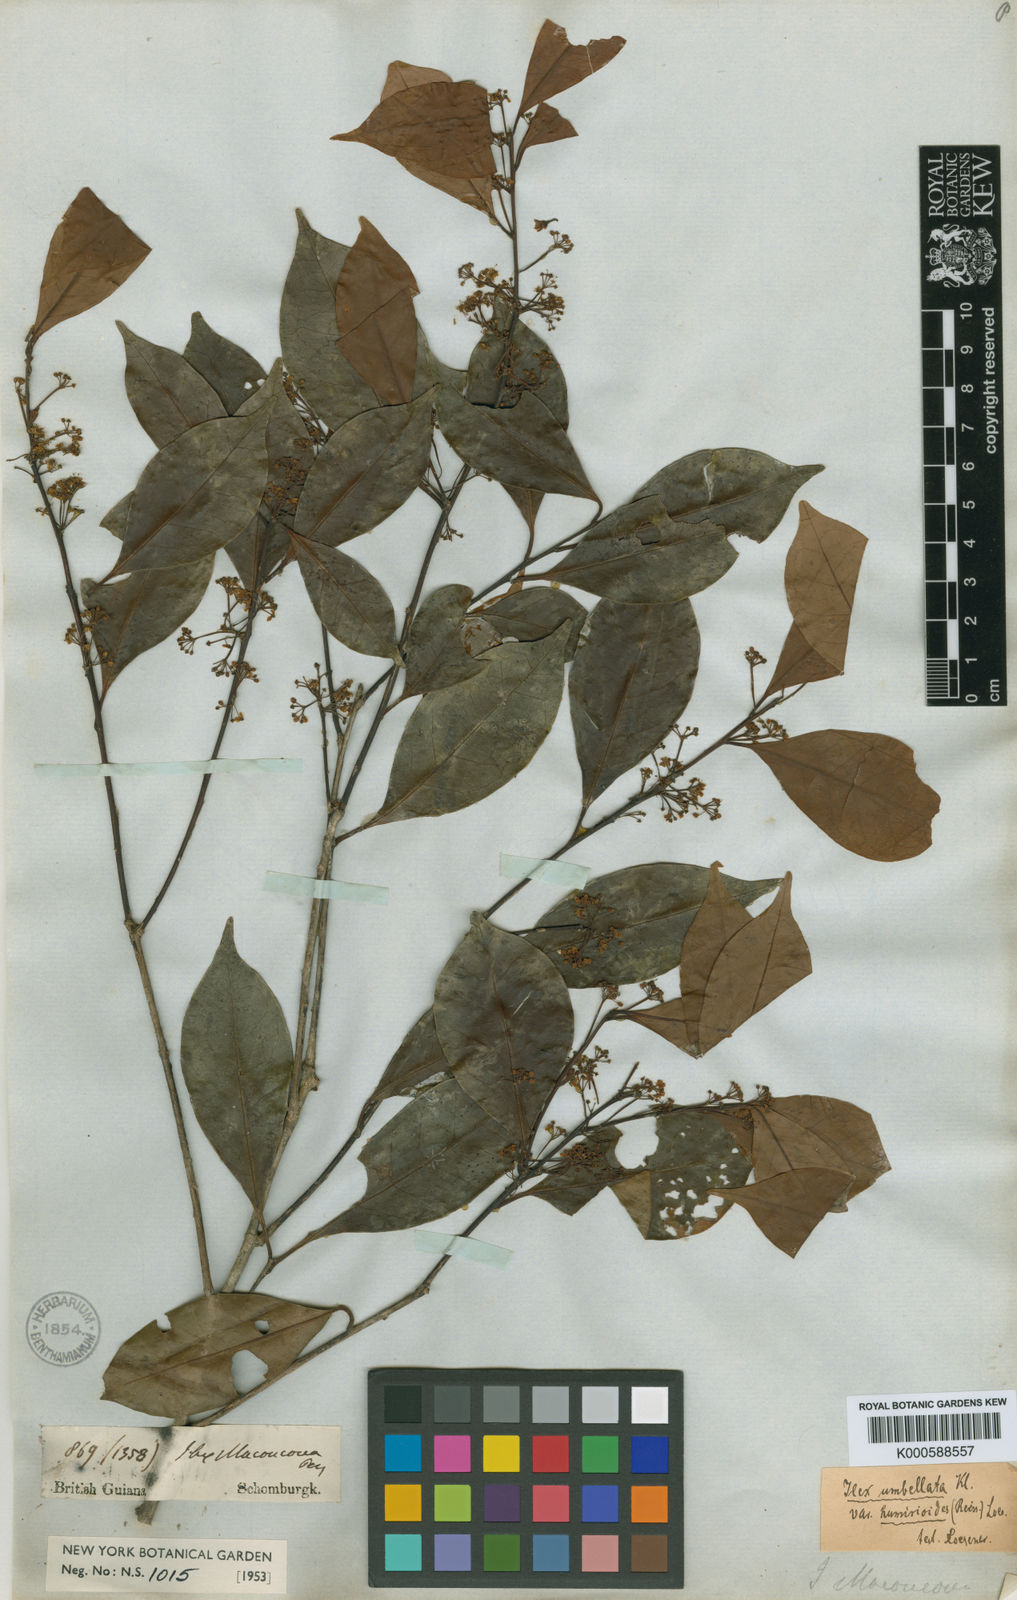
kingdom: Plantae
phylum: Tracheophyta
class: Magnoliopsida
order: Aquifoliales
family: Aquifoliaceae
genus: Ilex
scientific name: Ilex umbellata
